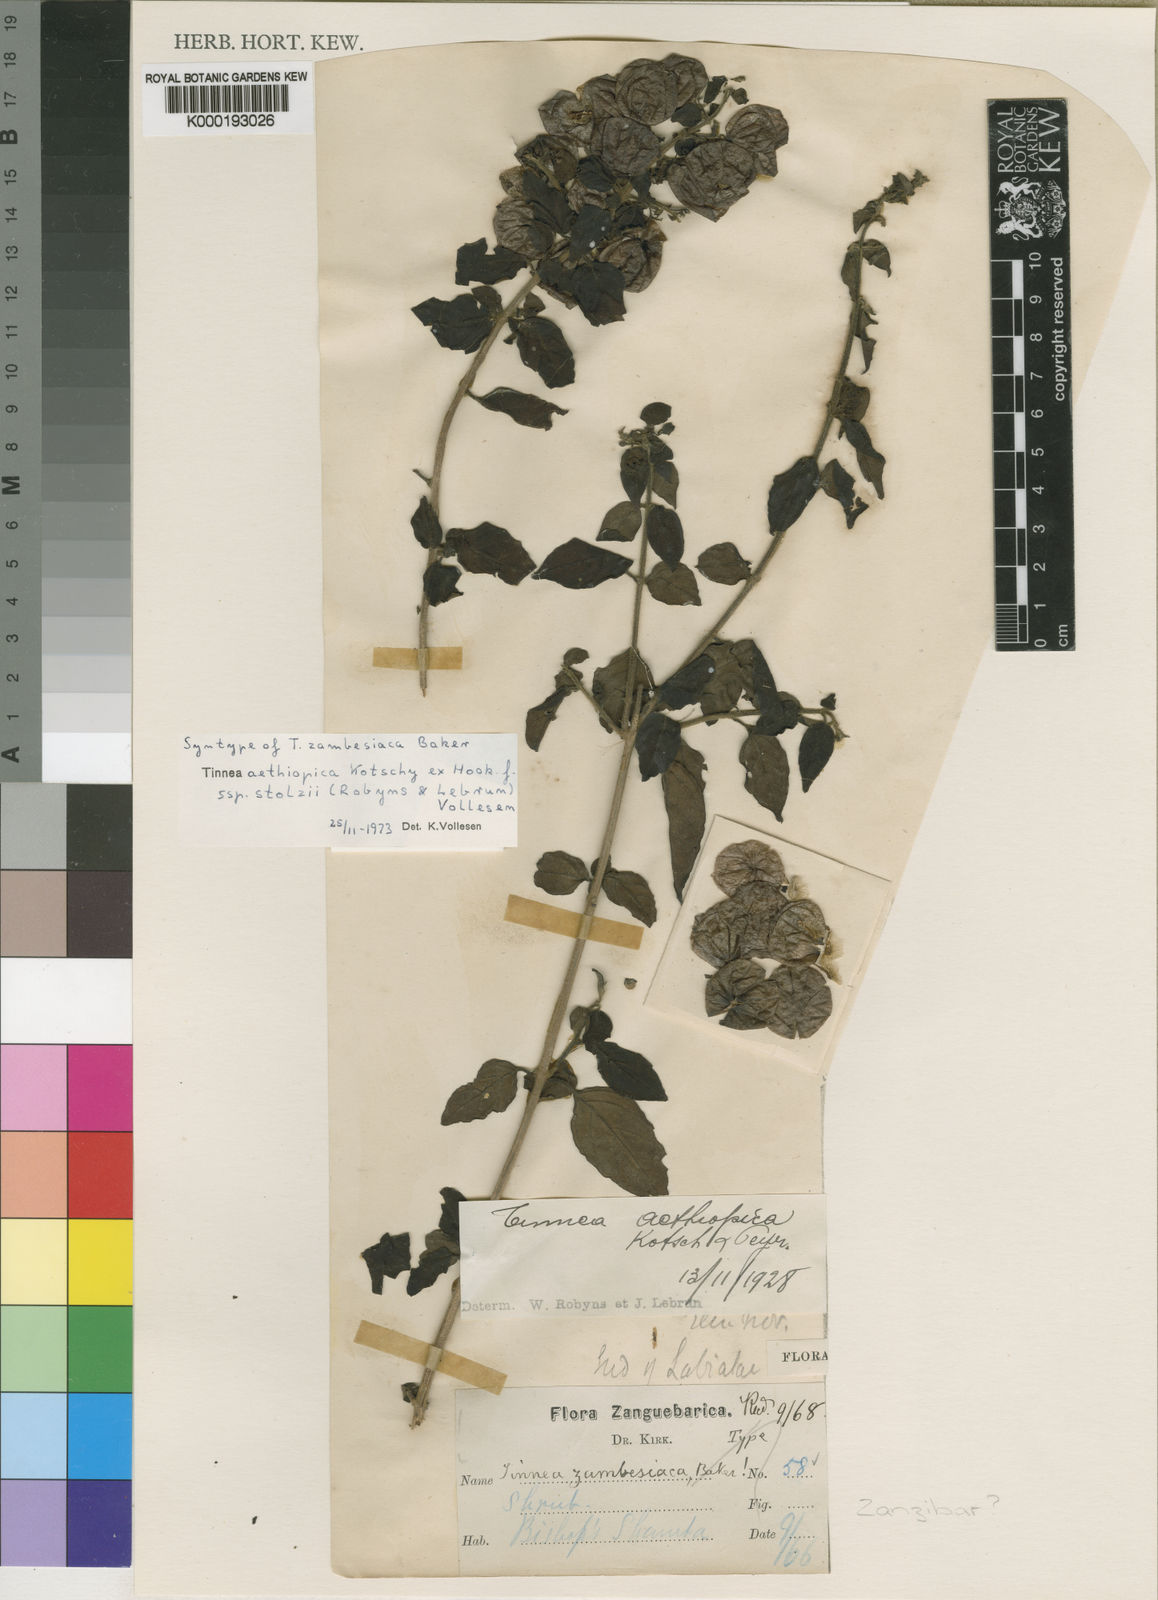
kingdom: Plantae
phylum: Tracheophyta
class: Magnoliopsida
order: Lamiales
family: Lamiaceae
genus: Tinnea
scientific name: Tinnea aethiopica
